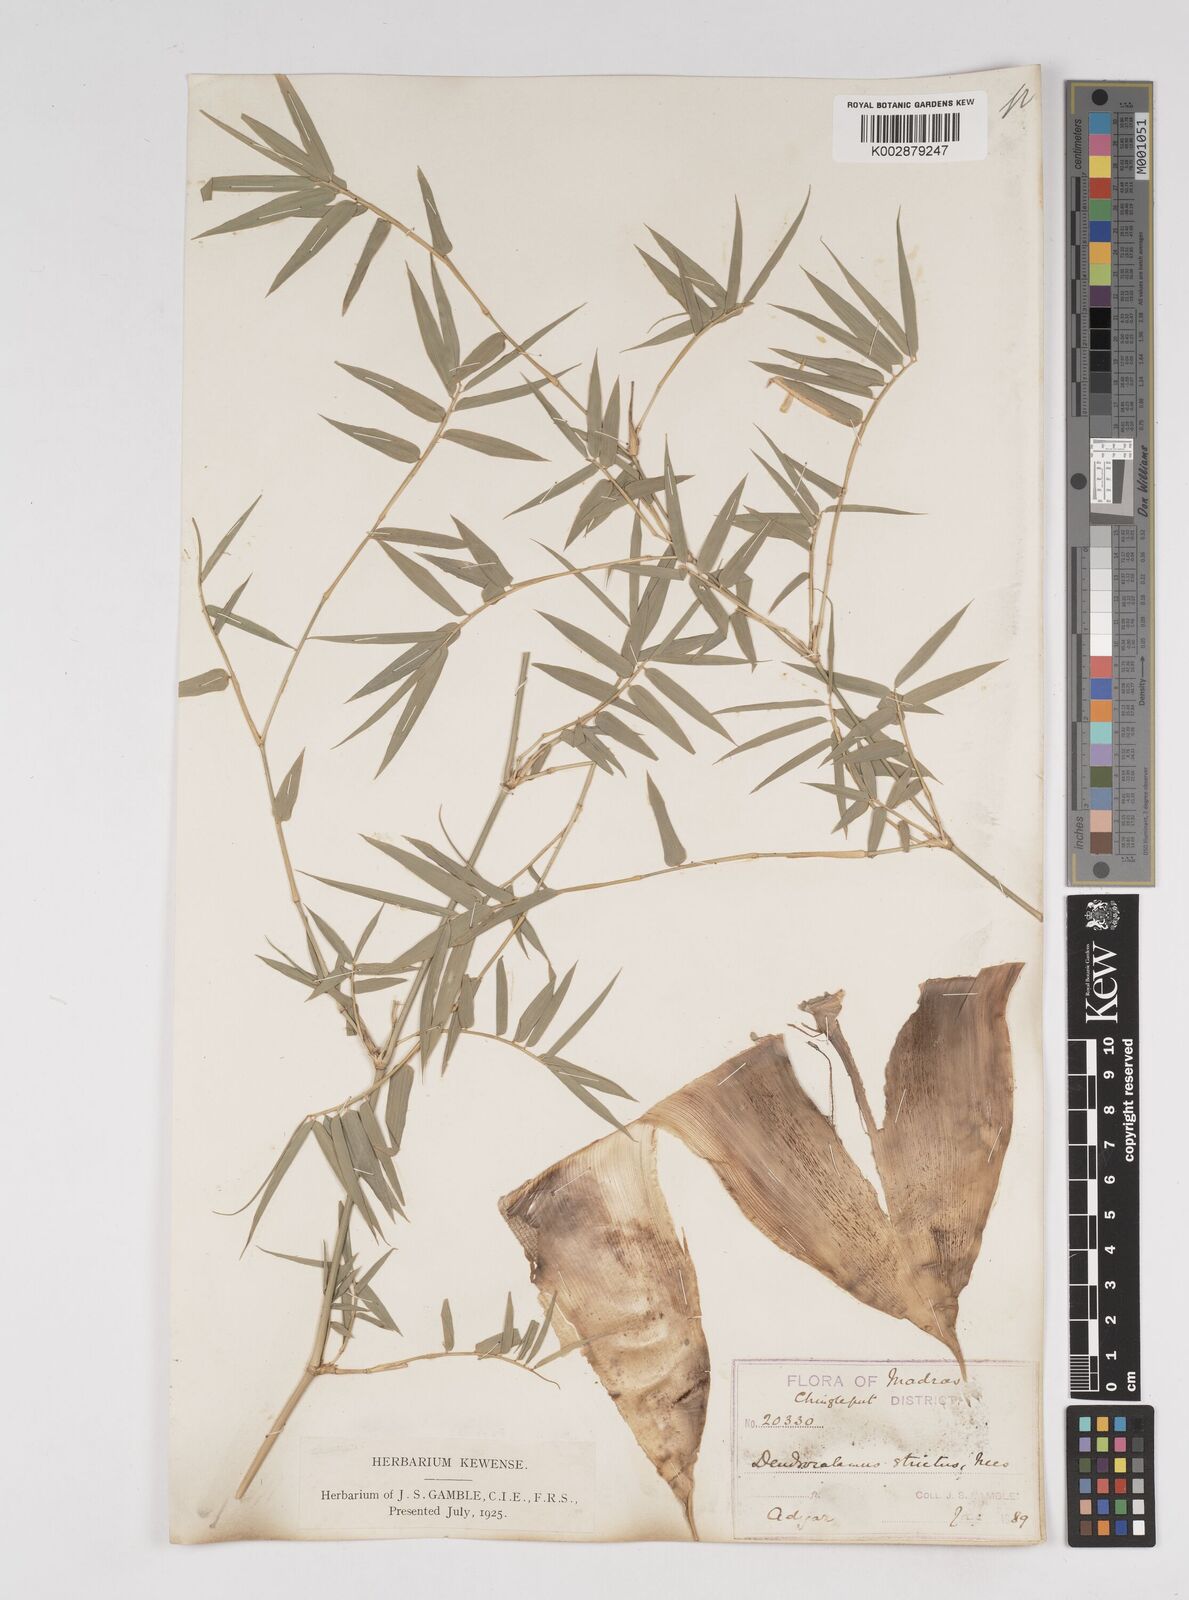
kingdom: Plantae
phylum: Tracheophyta
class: Liliopsida
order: Poales
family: Poaceae
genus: Dendrocalamus
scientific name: Dendrocalamus strictus
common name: Male bamboo
